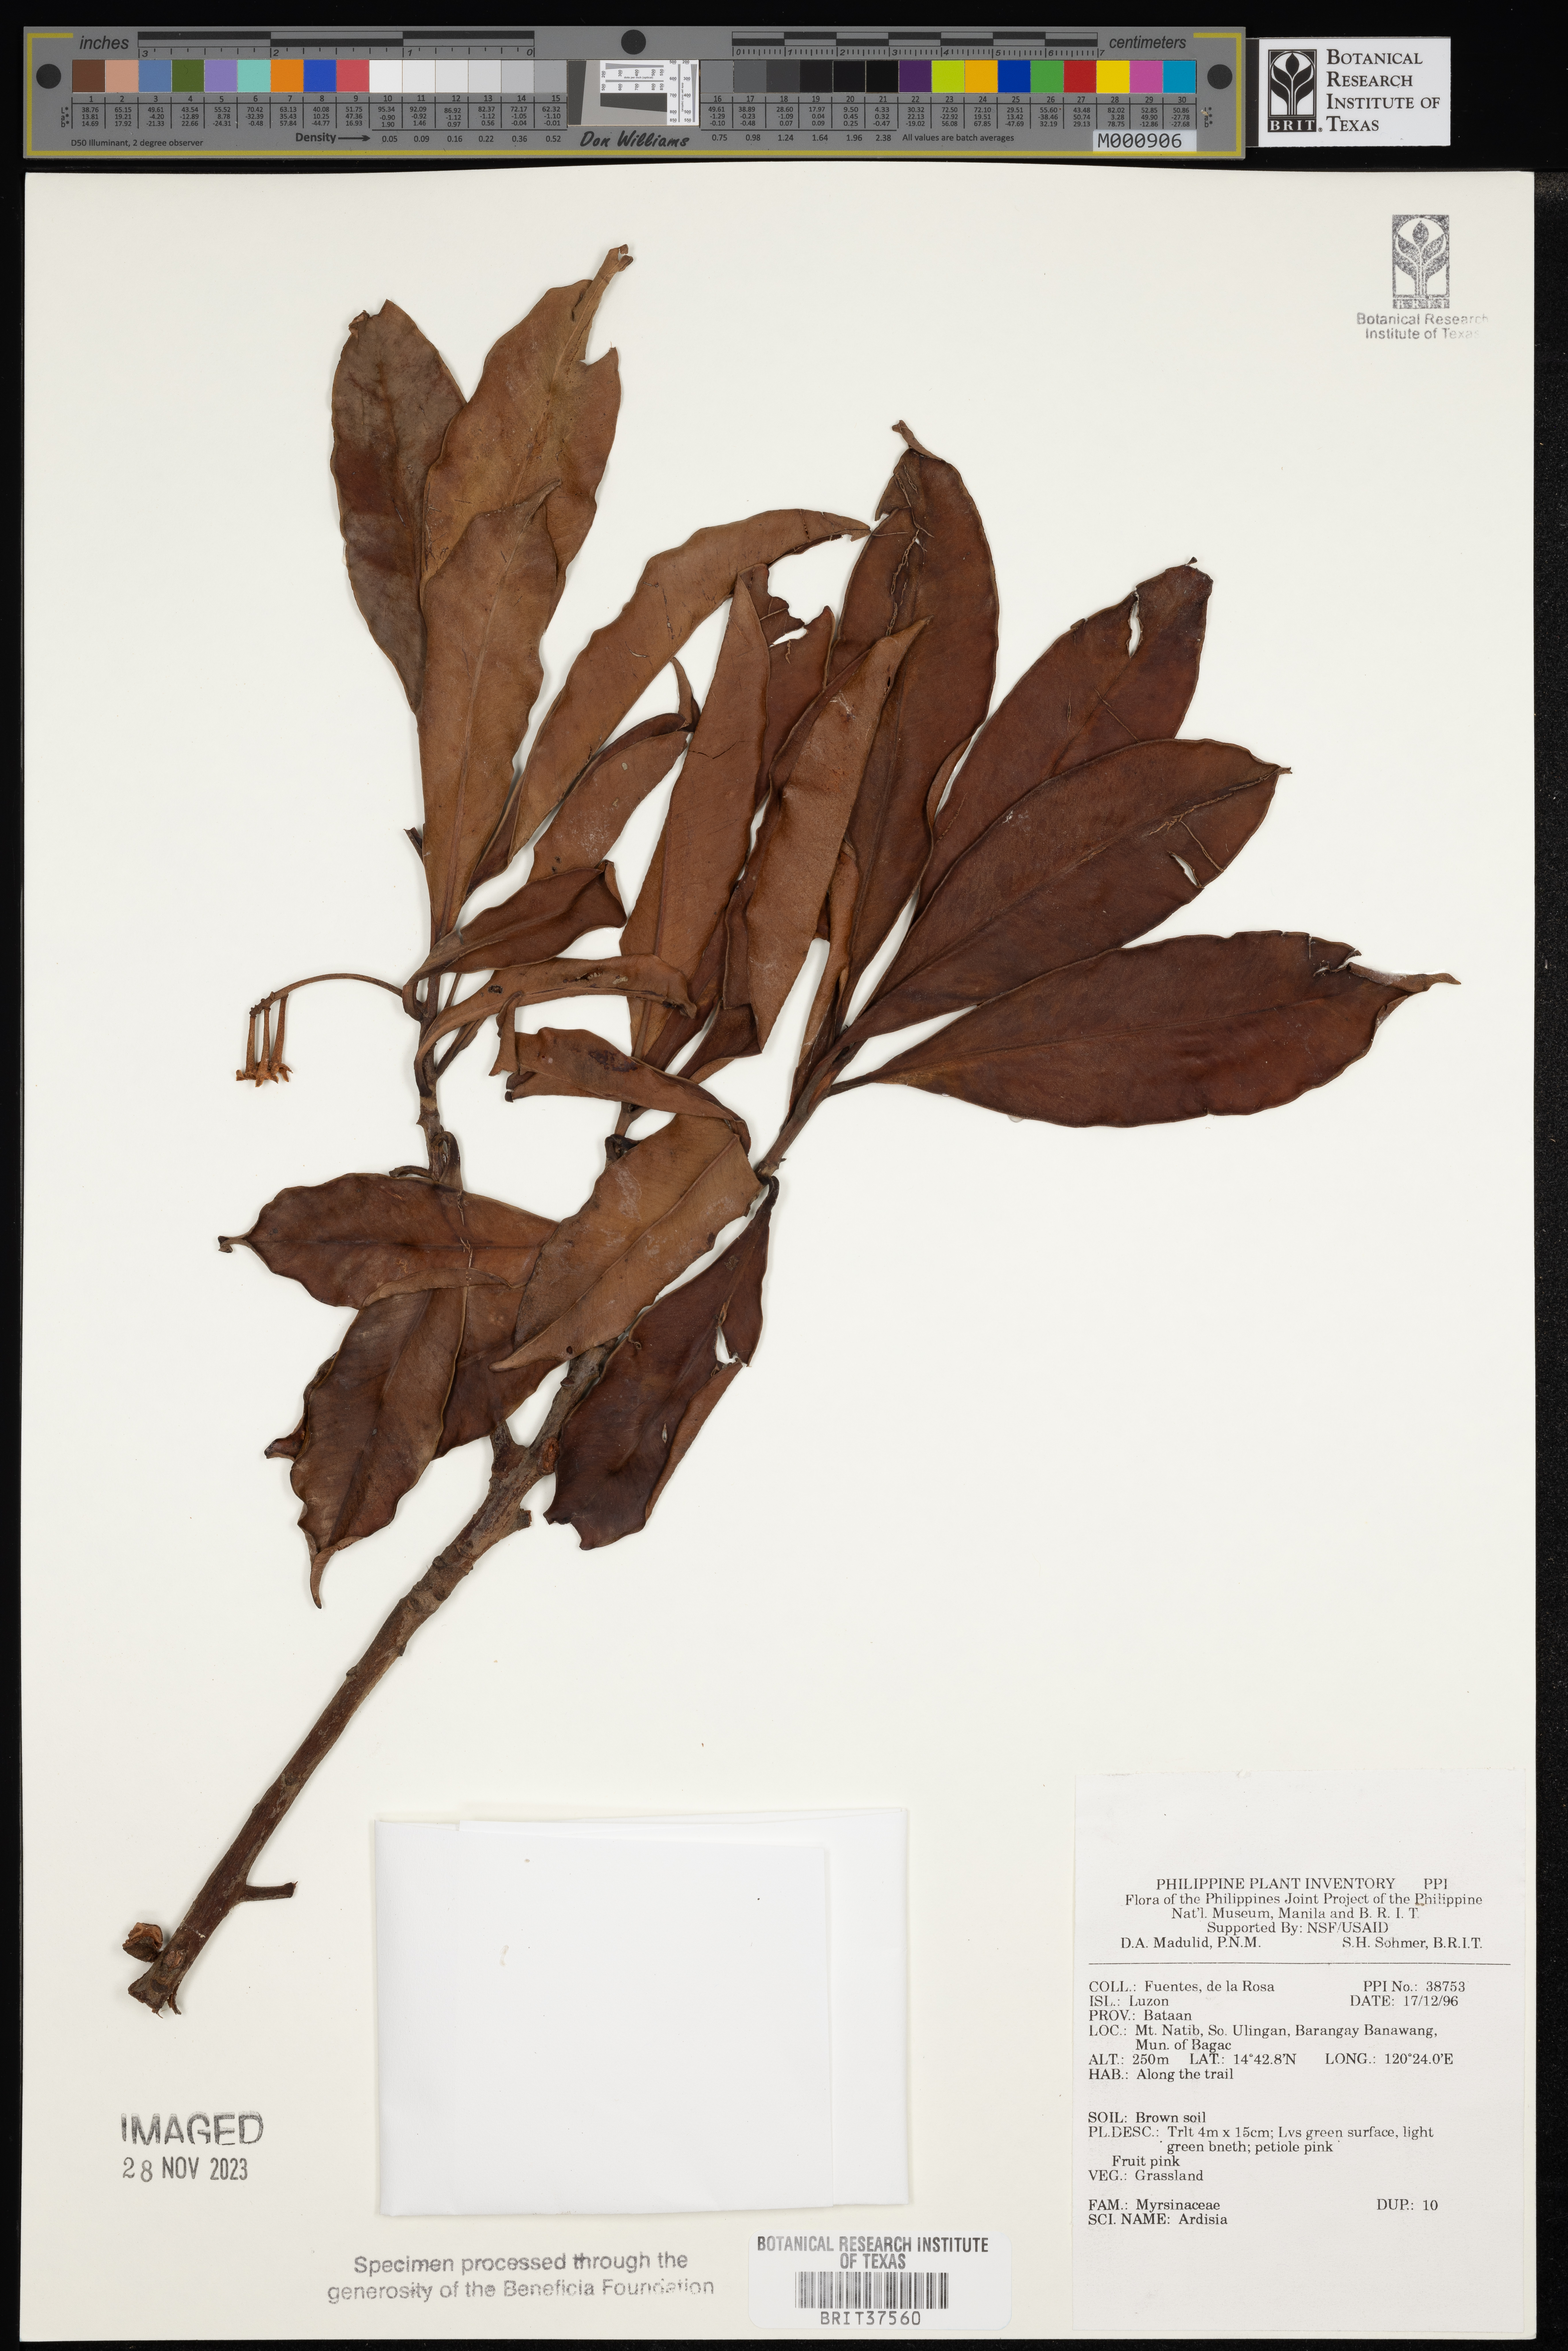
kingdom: Plantae
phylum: Tracheophyta
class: Magnoliopsida
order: Ericales
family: Primulaceae
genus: Ardisia
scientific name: Ardisia
